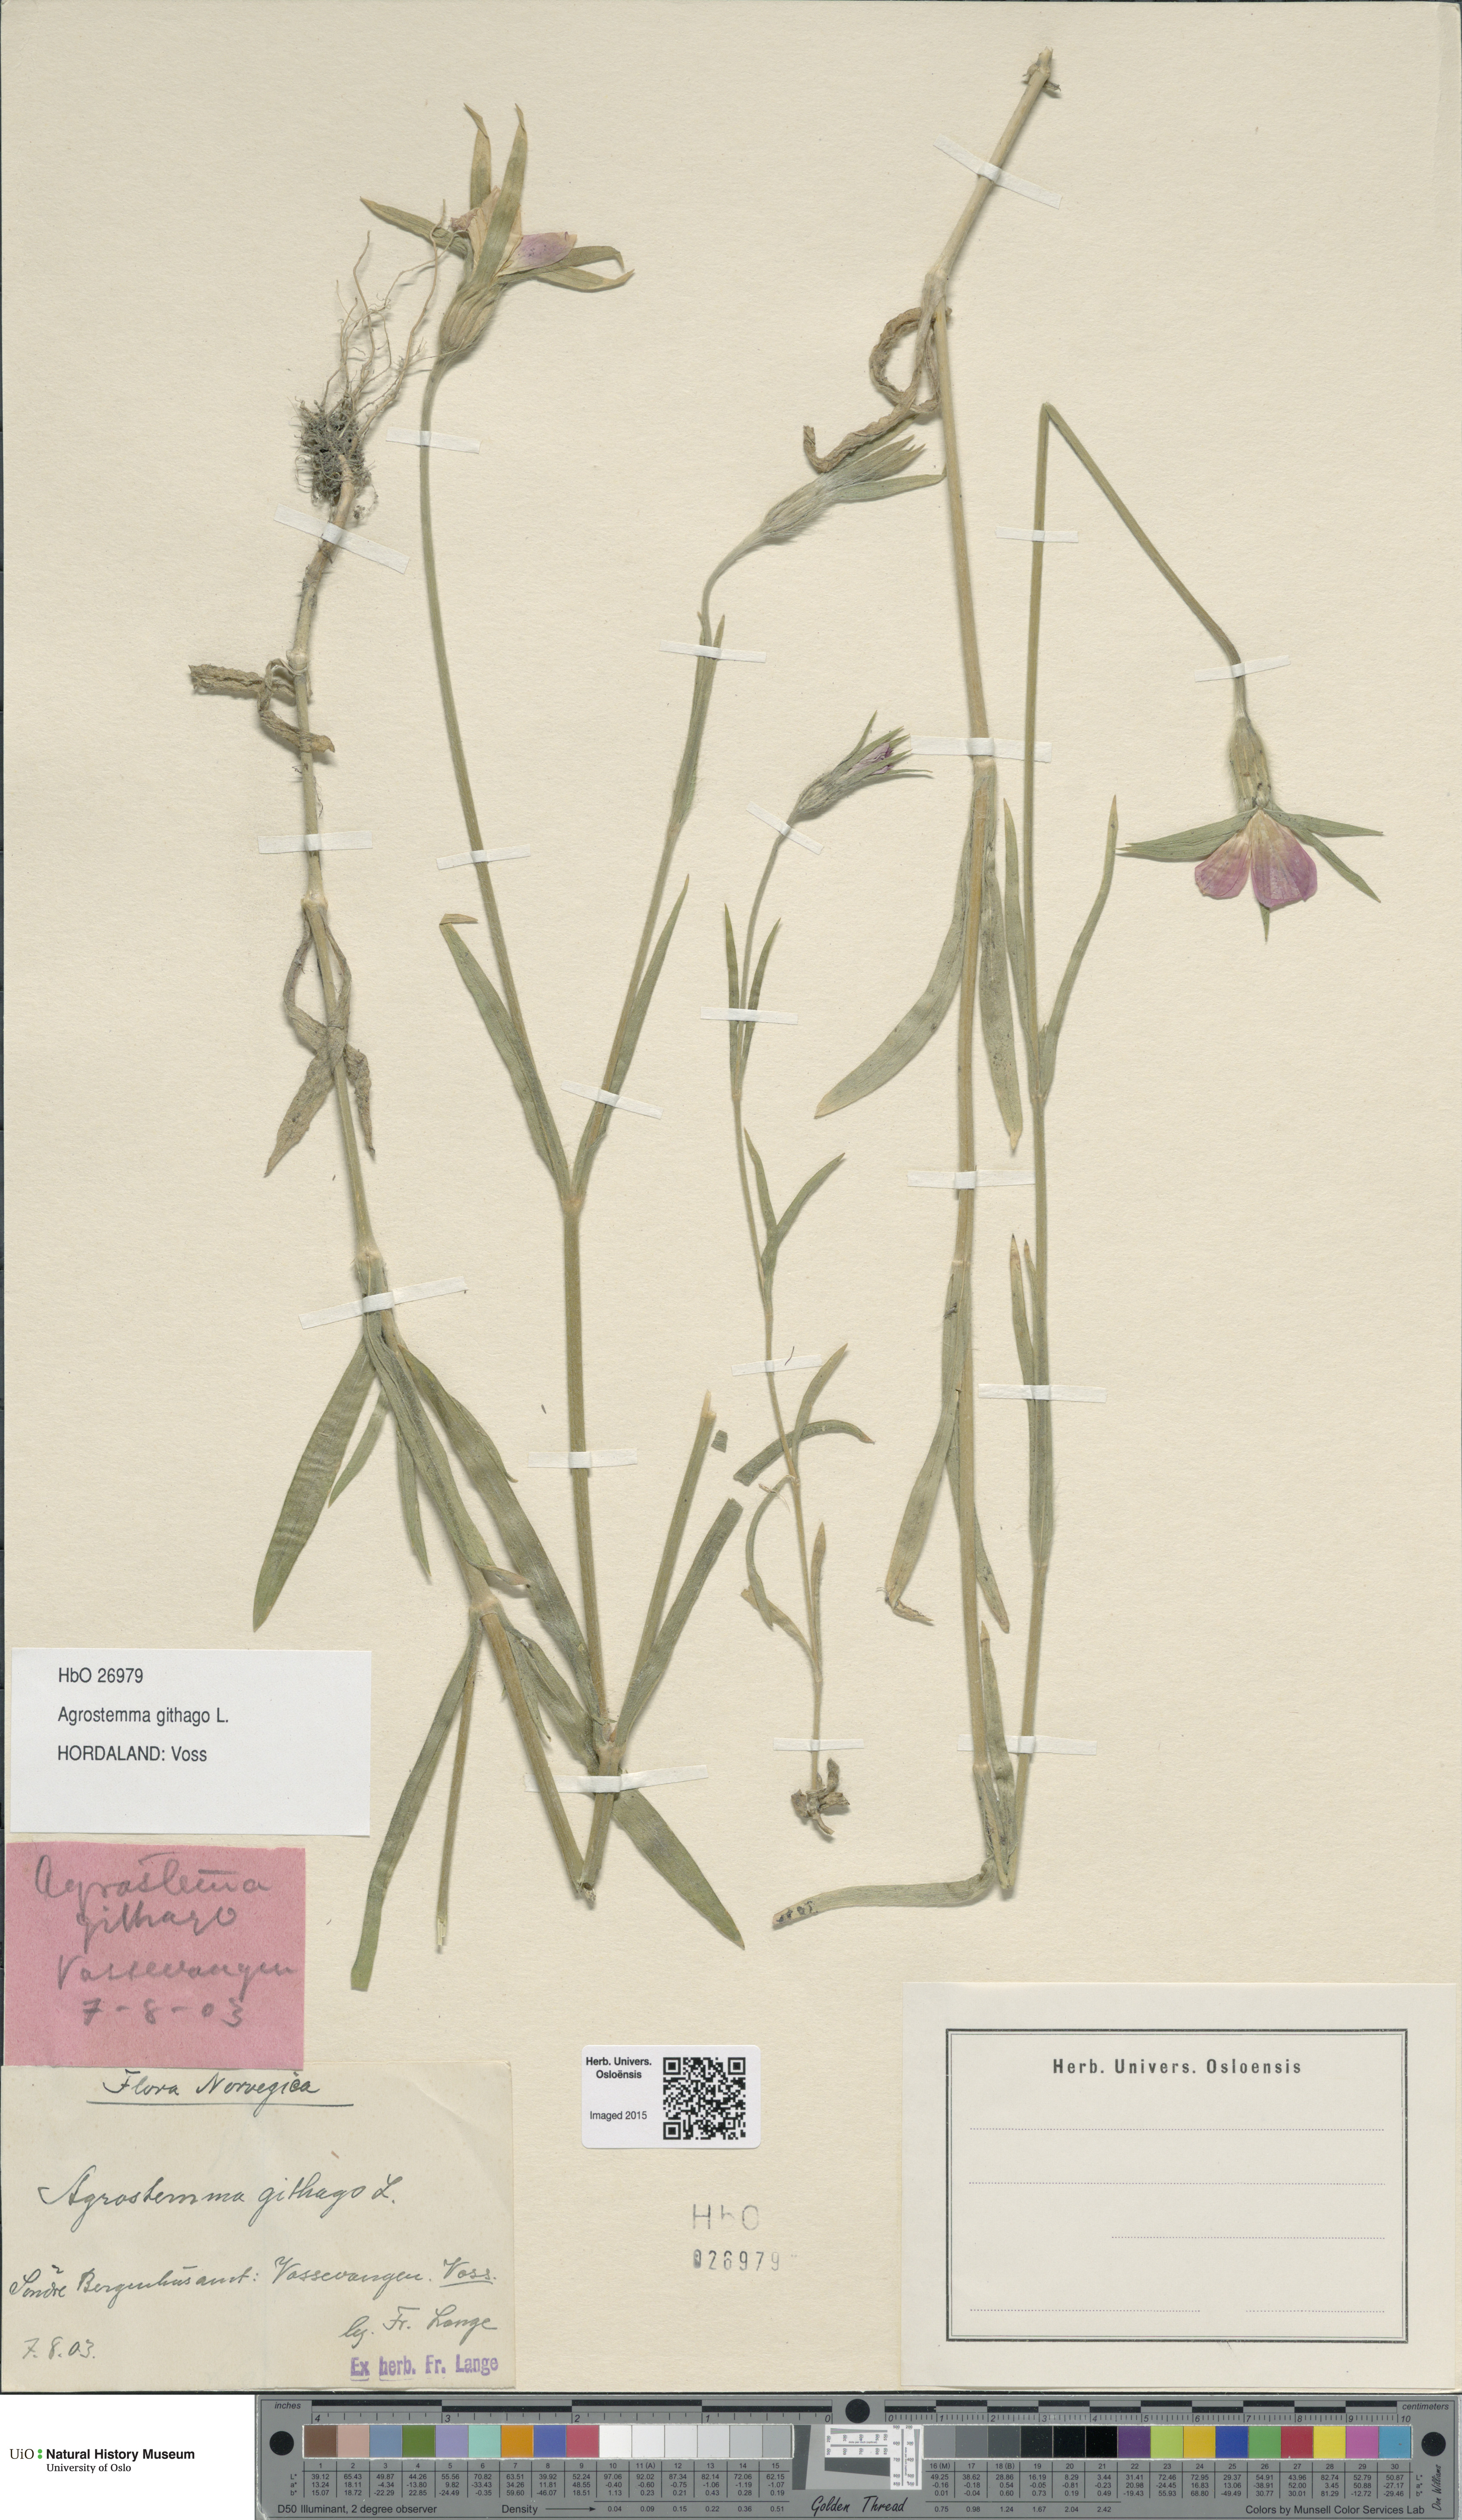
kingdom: Plantae
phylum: Tracheophyta
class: Magnoliopsida
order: Caryophyllales
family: Caryophyllaceae
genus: Agrostemma
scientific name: Agrostemma githago
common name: Common corncockle
